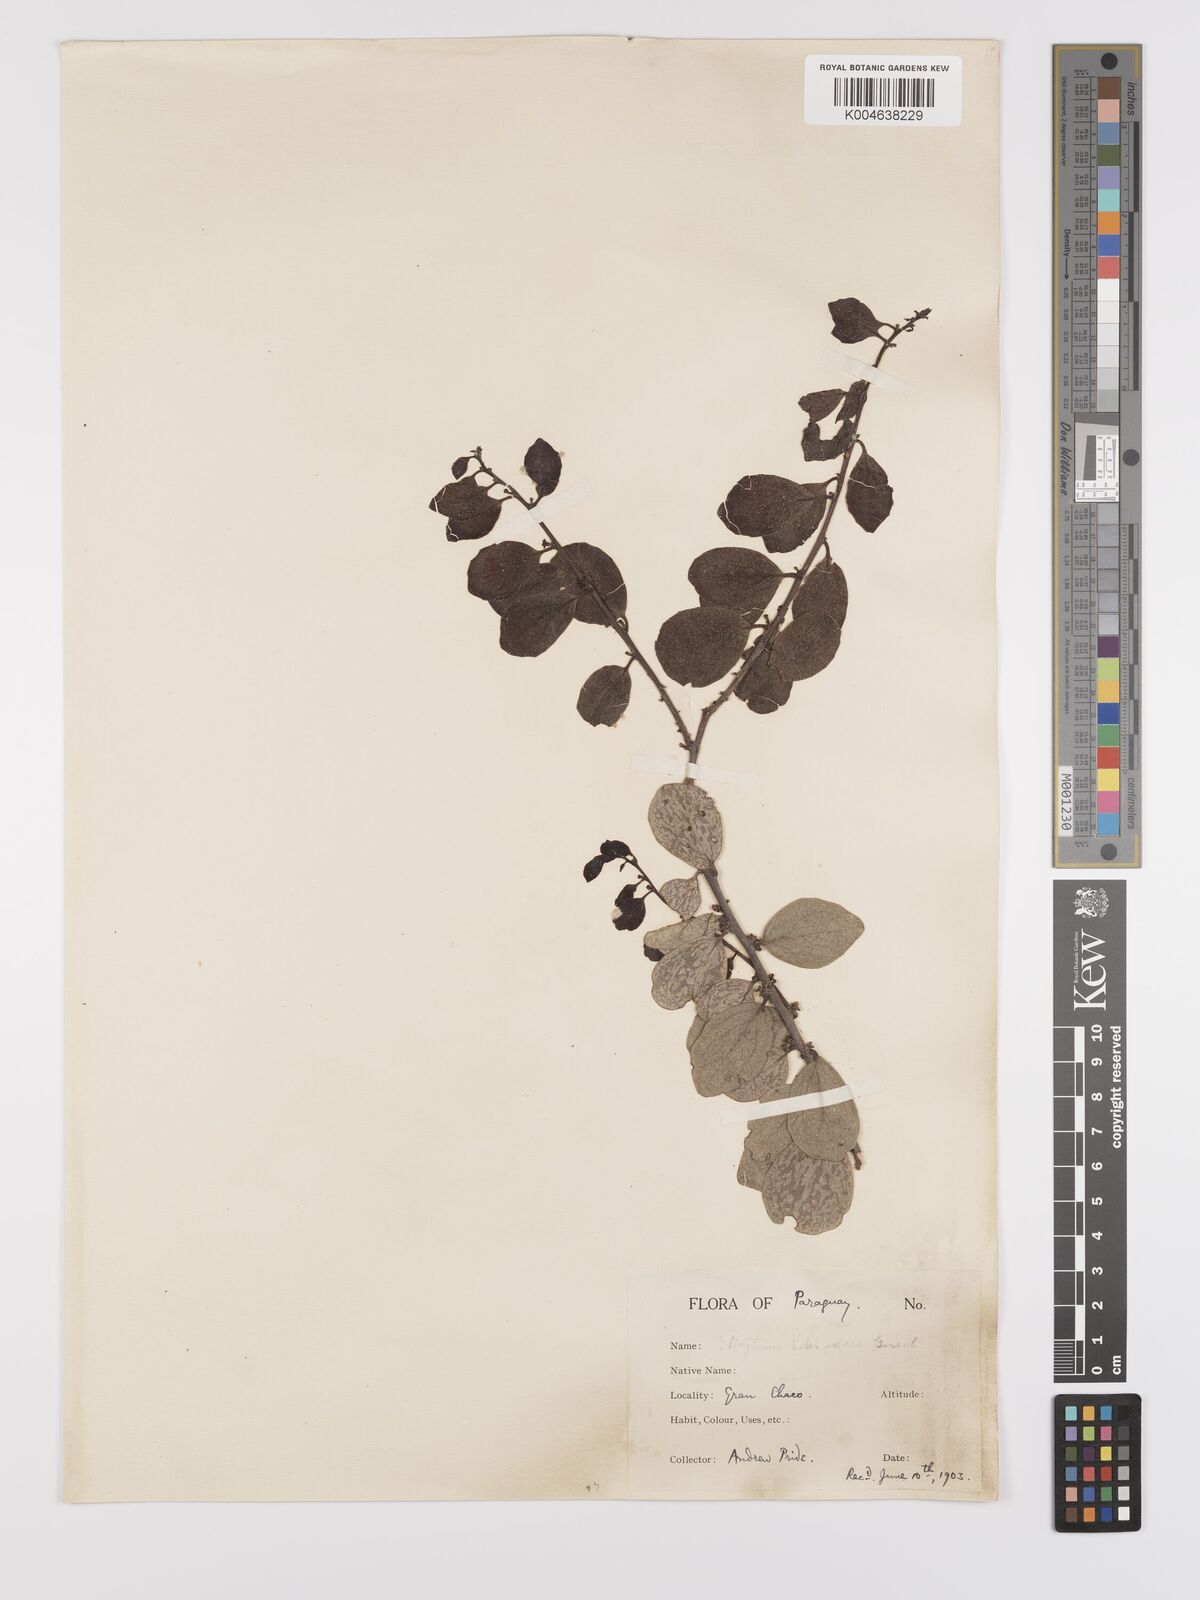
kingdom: Plantae
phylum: Tracheophyta
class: Magnoliopsida
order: Celastrales
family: Celastraceae
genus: Tricerma
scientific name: Tricerma vitis-idaeum
